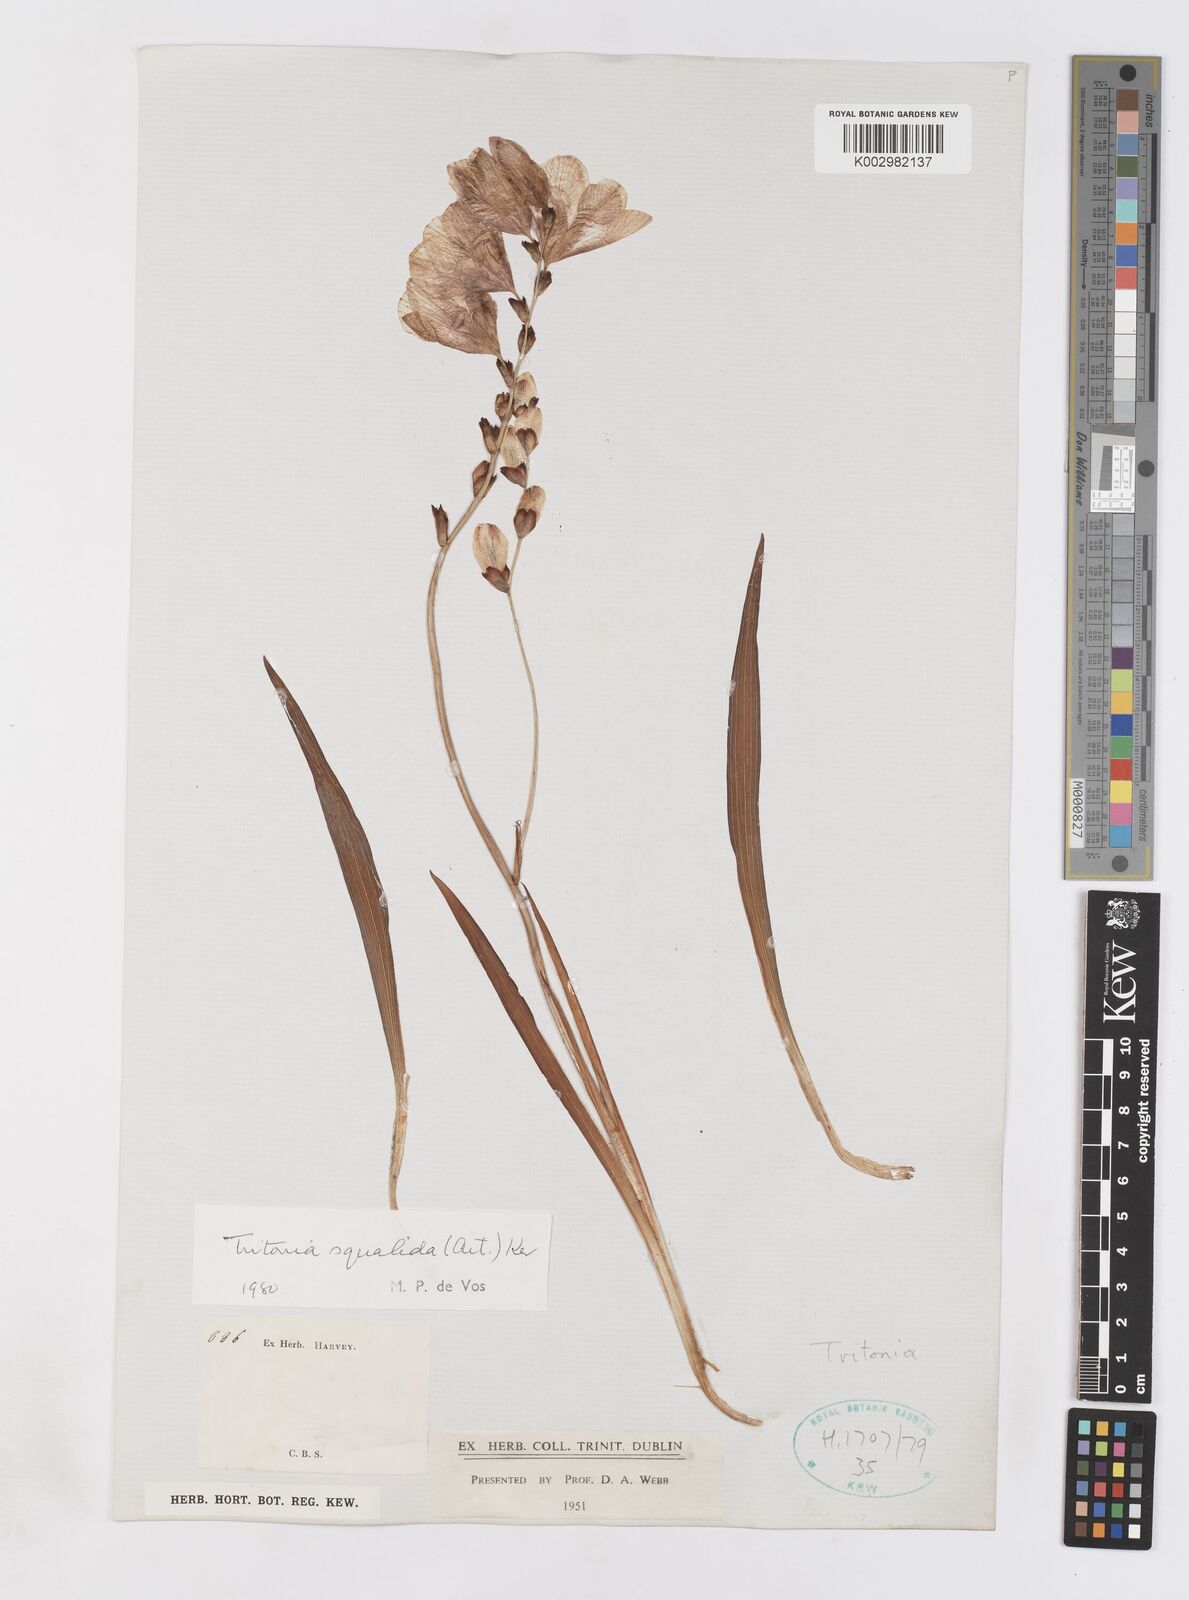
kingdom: Plantae
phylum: Tracheophyta
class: Liliopsida
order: Asparagales
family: Iridaceae
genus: Tritonia
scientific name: Tritonia squalida
